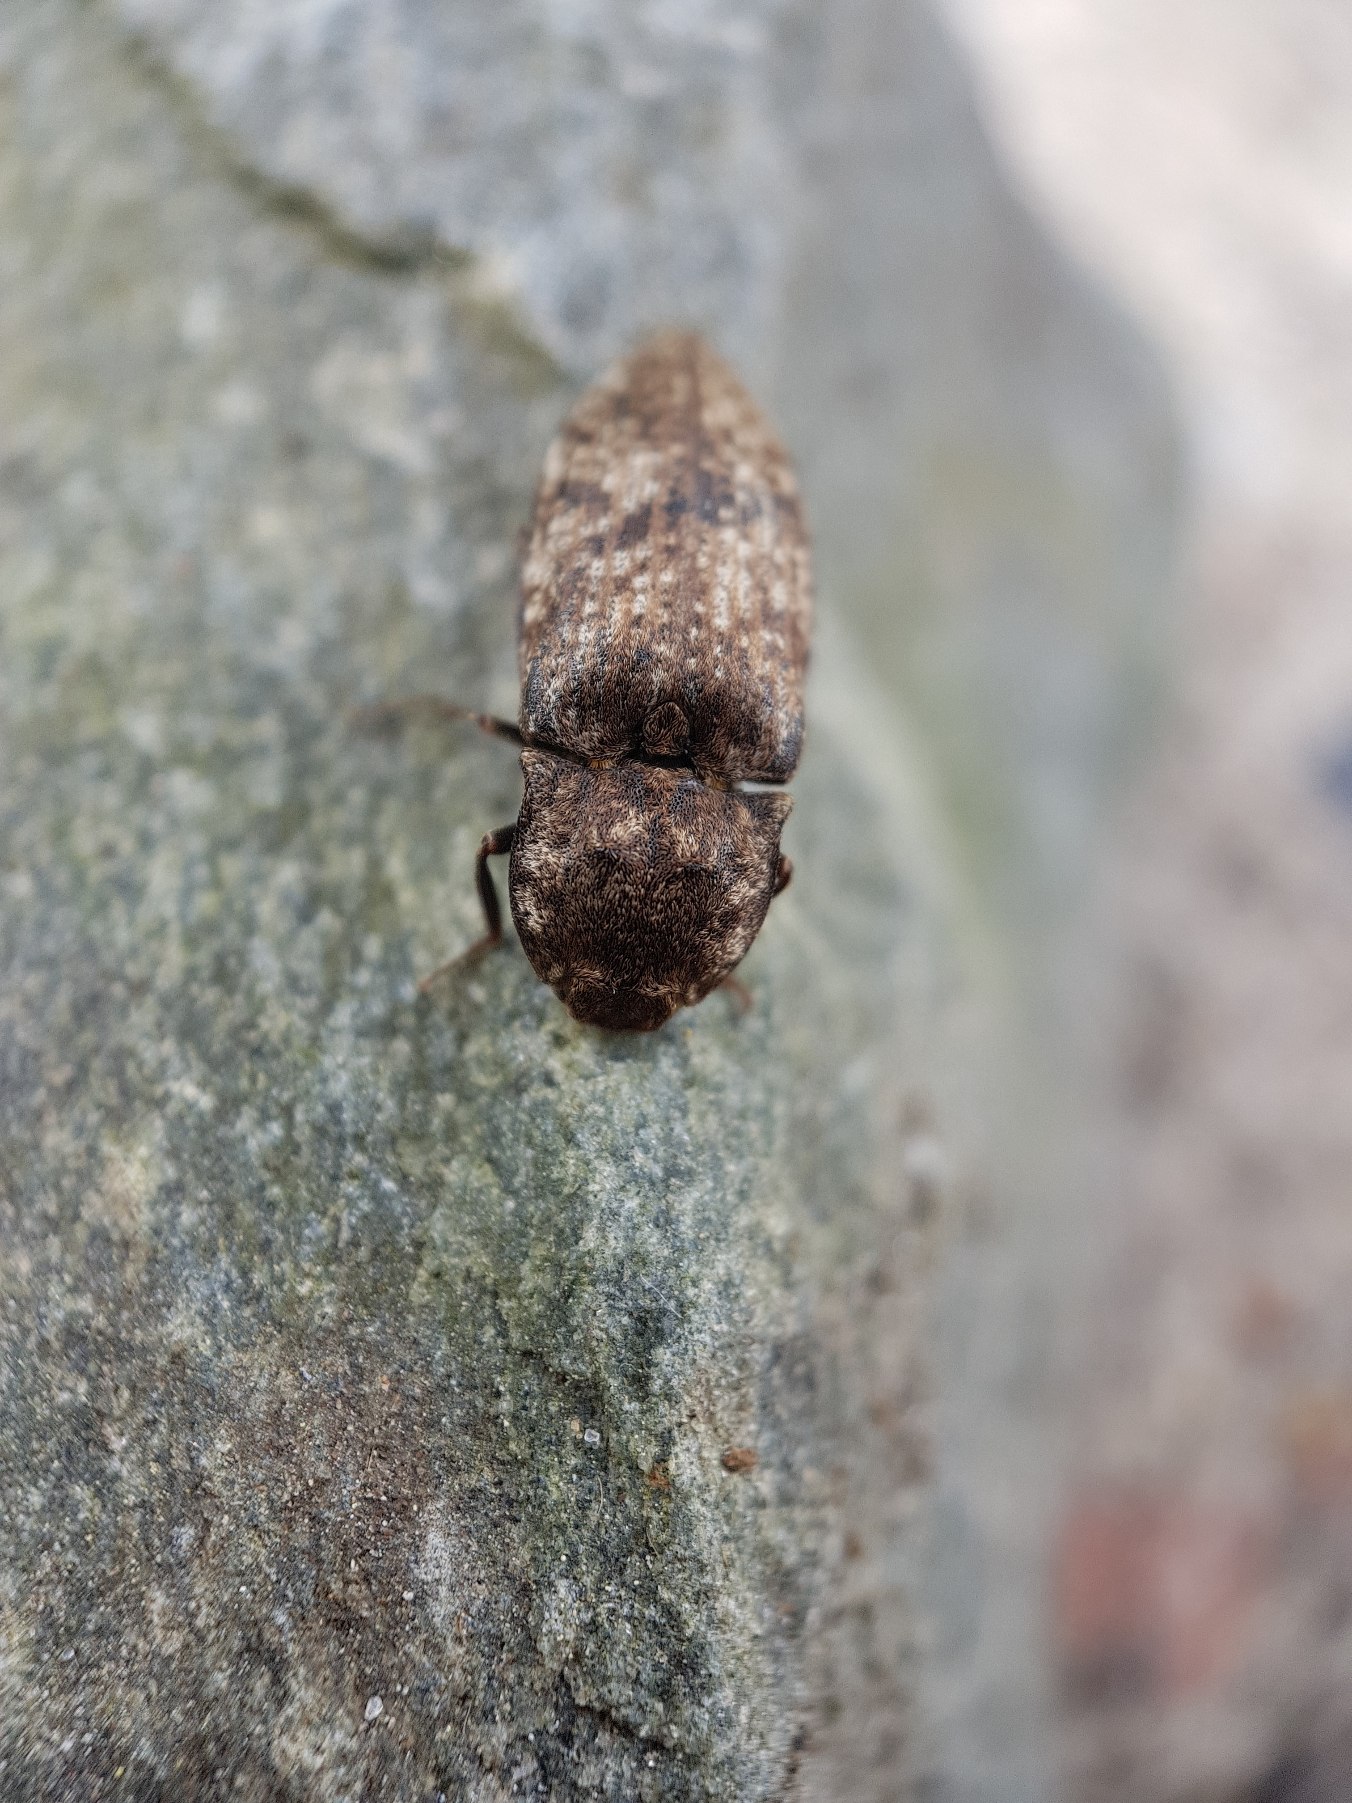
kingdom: Animalia
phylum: Arthropoda
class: Insecta
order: Coleoptera
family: Elateridae
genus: Agrypnus
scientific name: Agrypnus murinus
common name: Musegrå smælder
